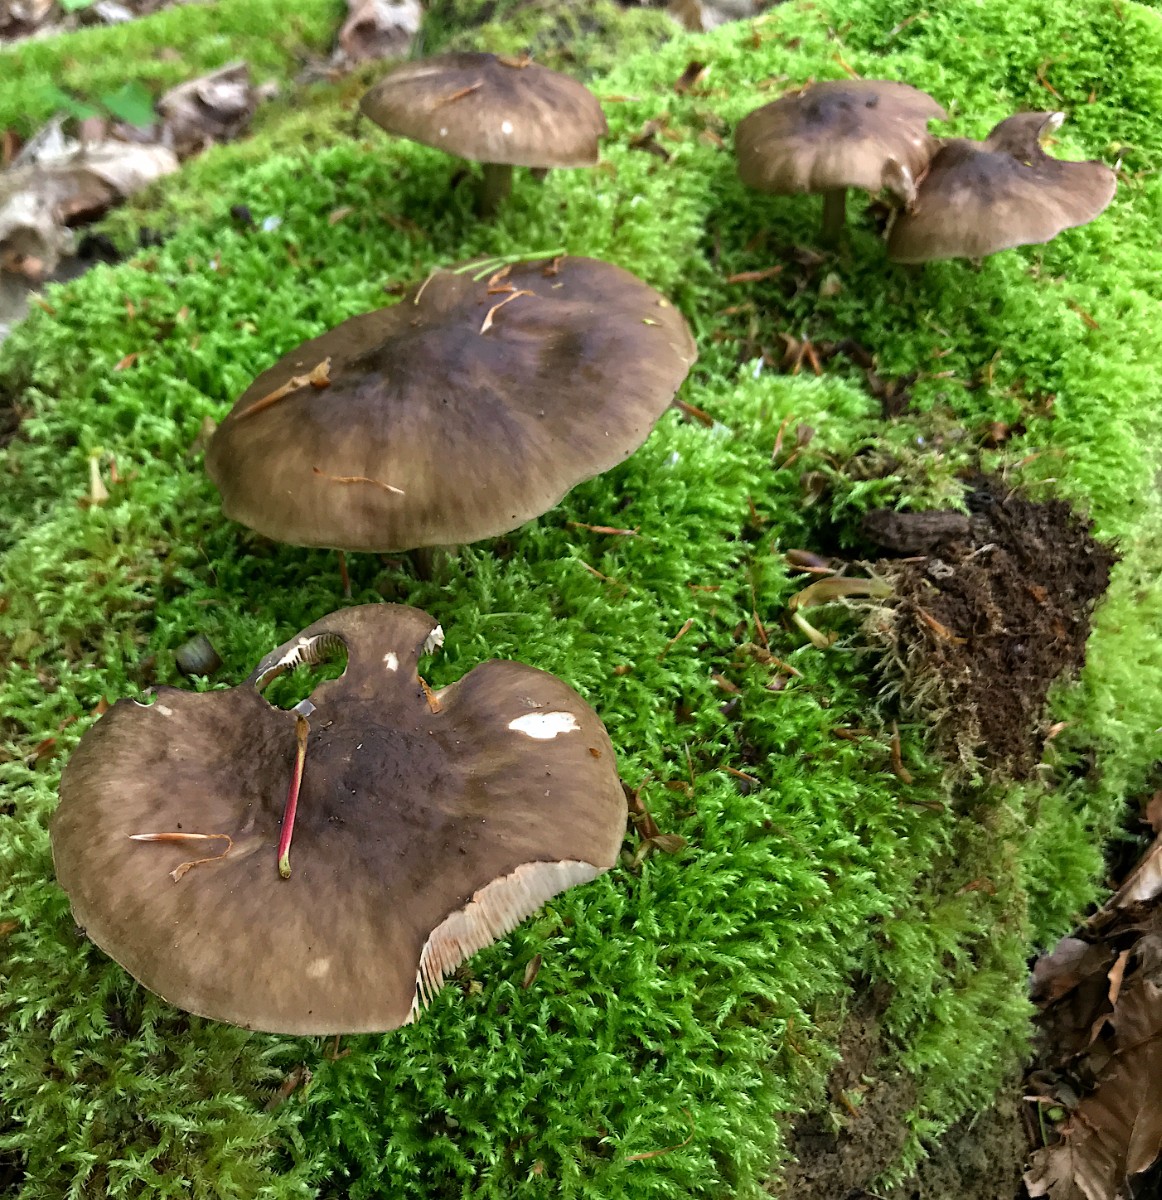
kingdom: Fungi
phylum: Basidiomycota
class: Agaricomycetes
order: Agaricales
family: Pluteaceae
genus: Pluteus
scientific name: Pluteus cervinus
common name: sodfarvet skærmhat
